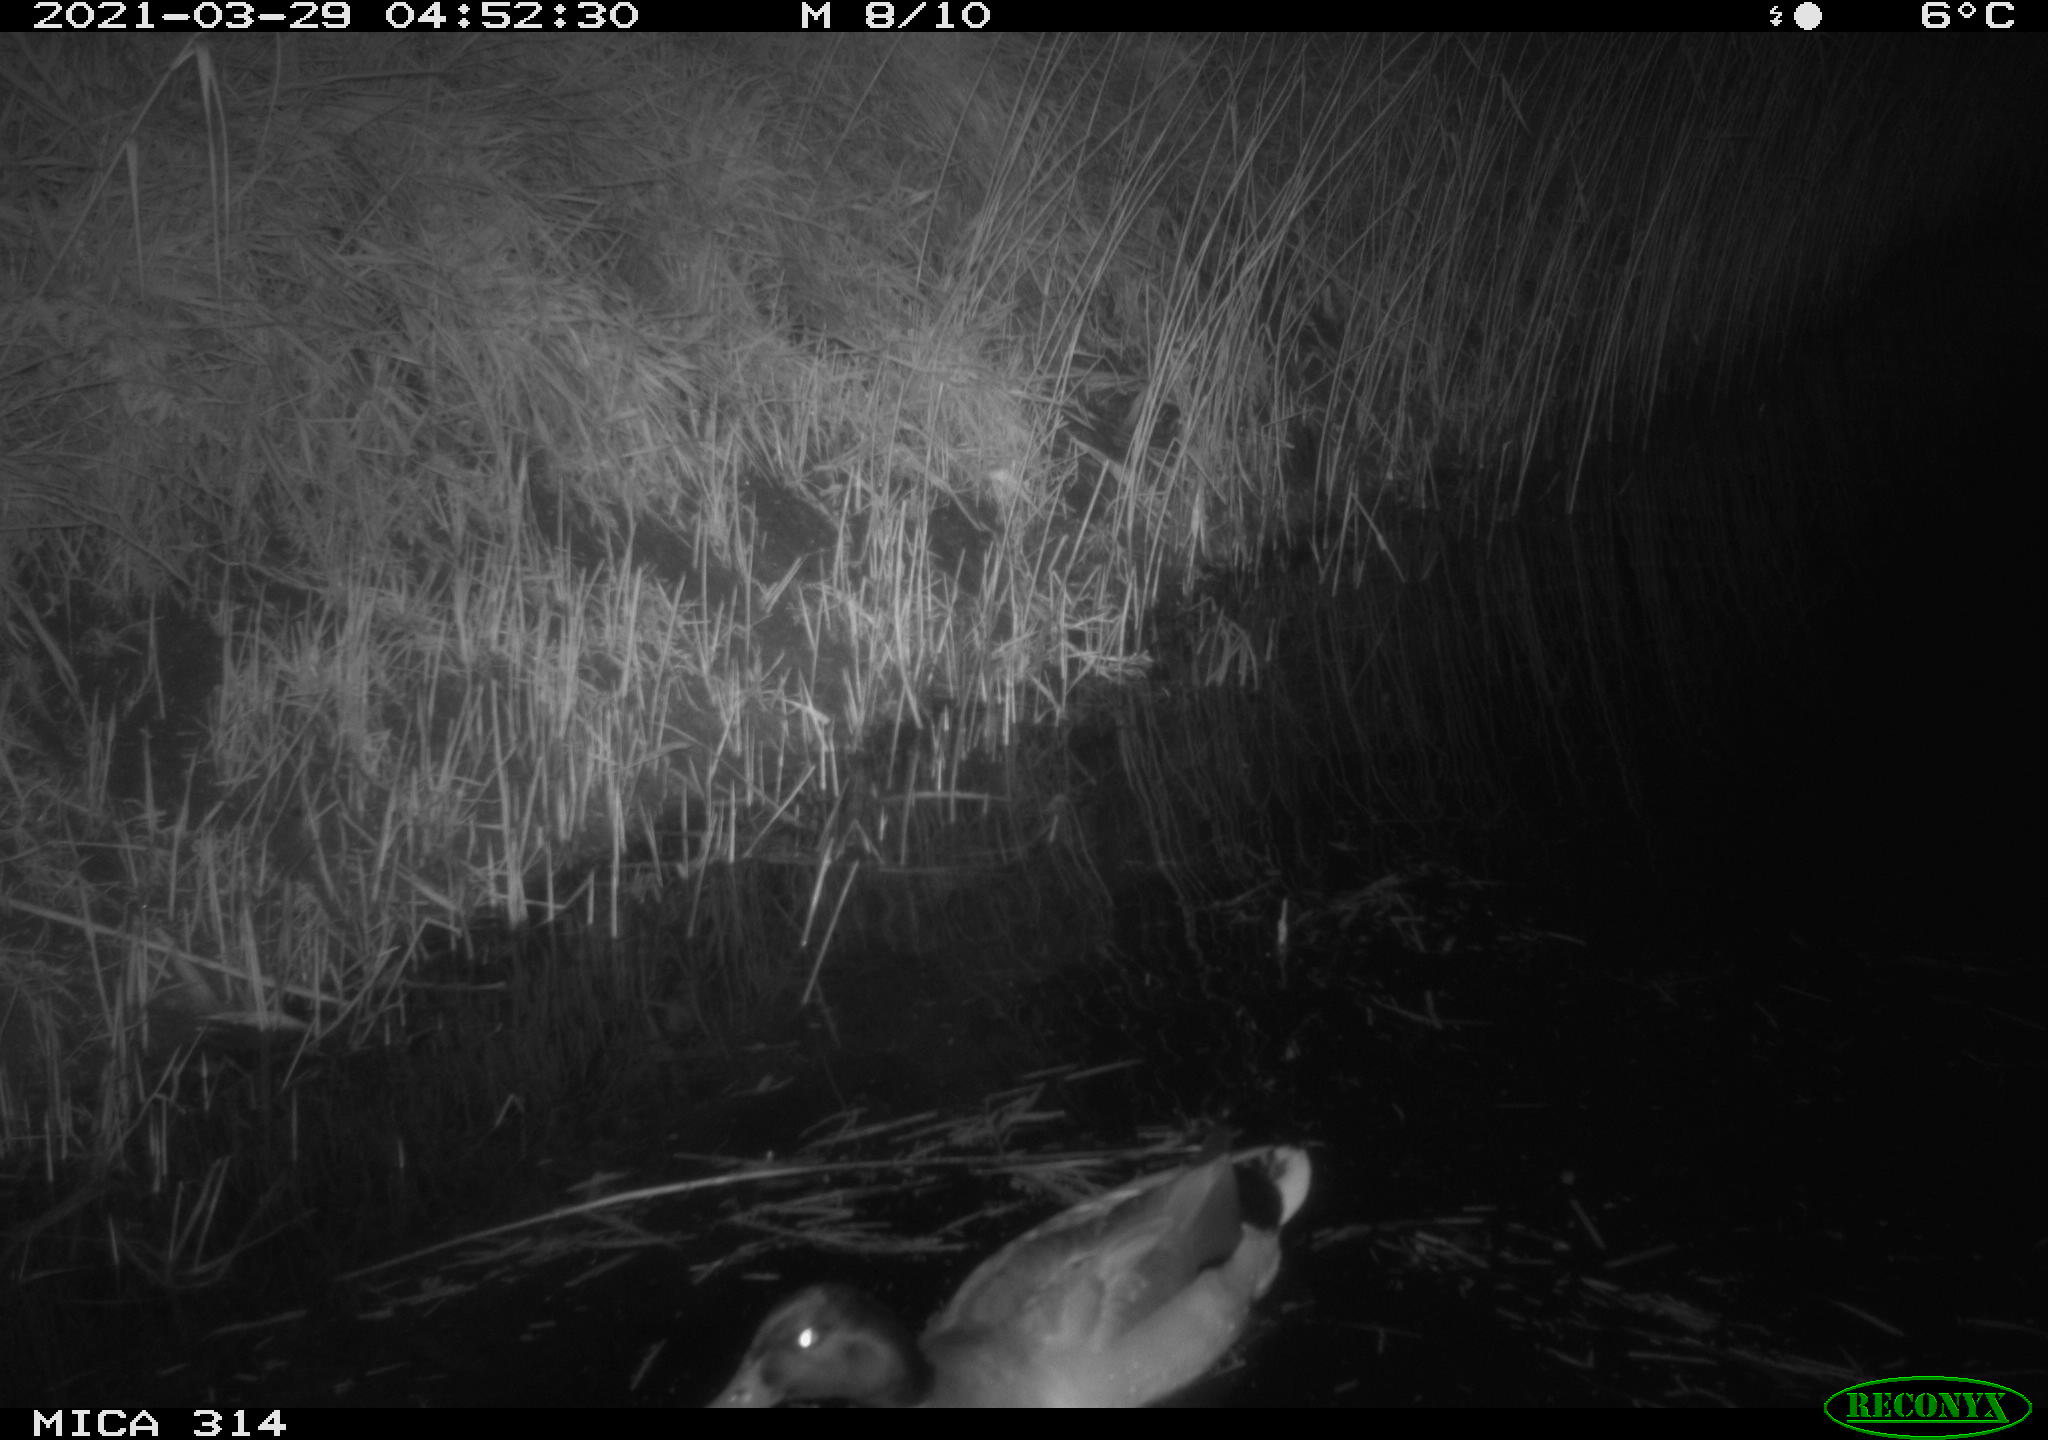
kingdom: Animalia
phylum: Chordata
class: Aves
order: Anseriformes
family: Anatidae
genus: Anas
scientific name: Anas platyrhynchos
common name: Mallard
